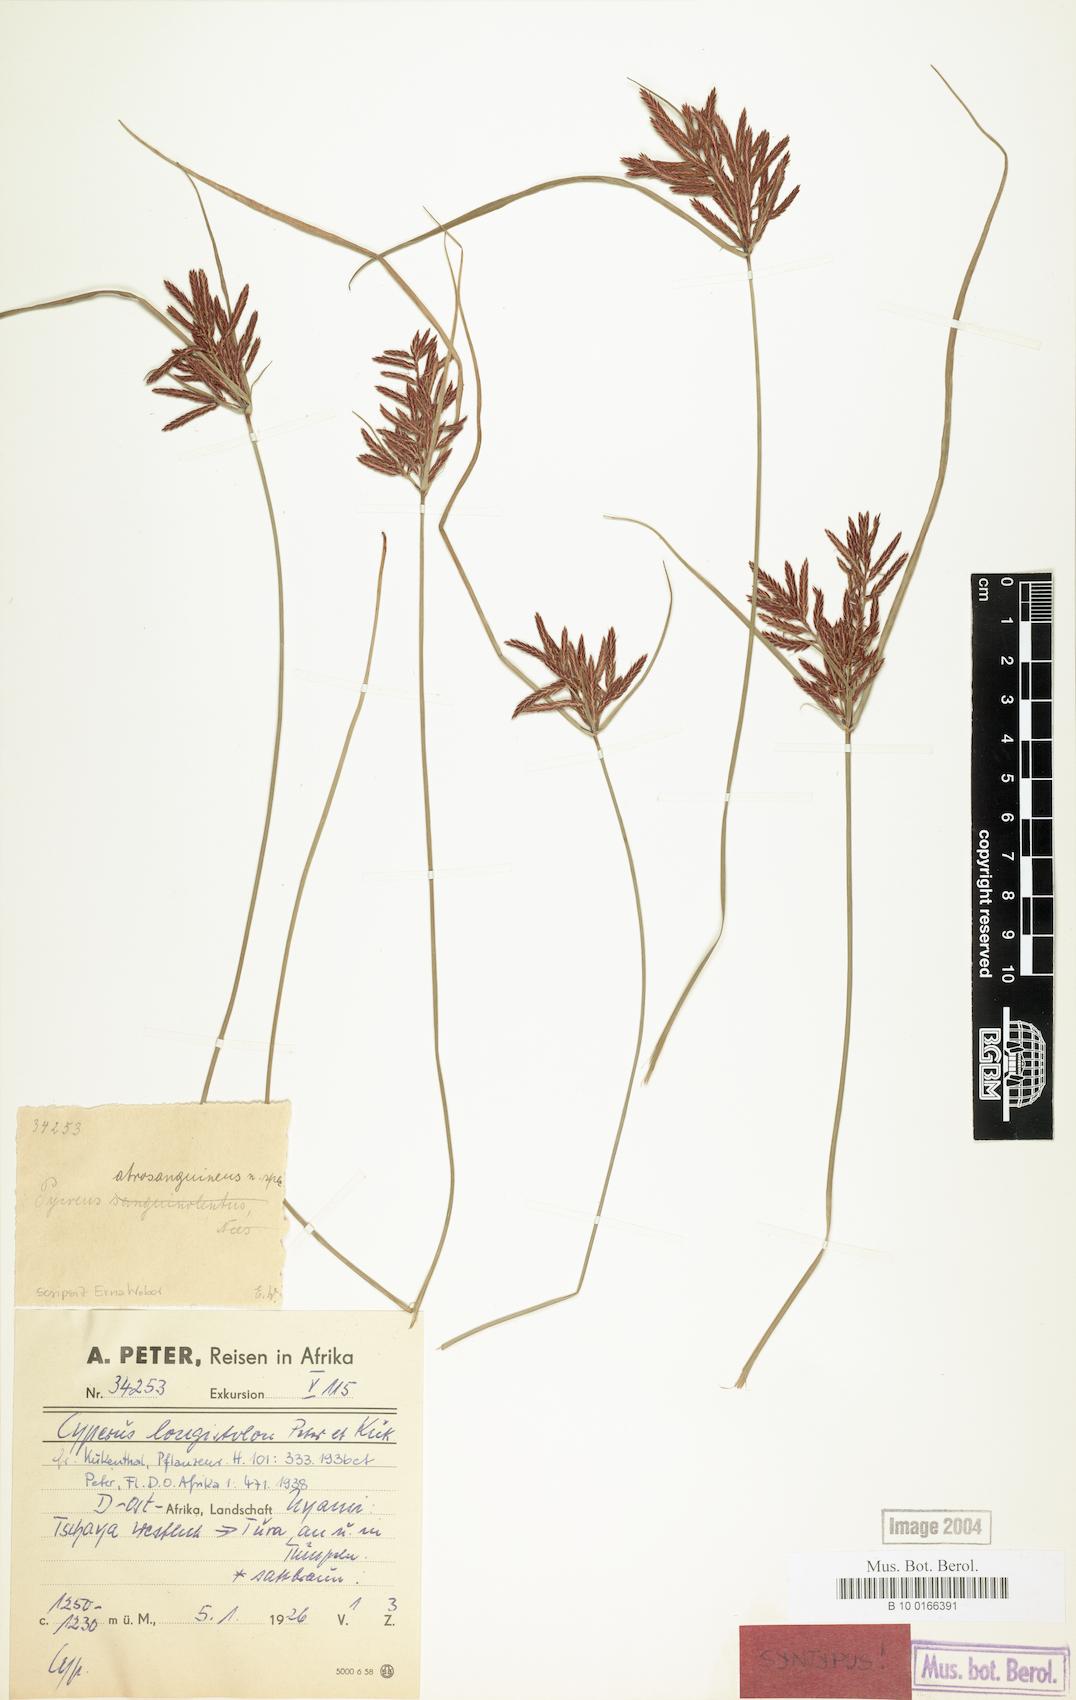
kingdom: Plantae
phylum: Tracheophyta
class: Liliopsida
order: Poales
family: Cyperaceae
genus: Cyperus
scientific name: Cyperus chrysanthus
